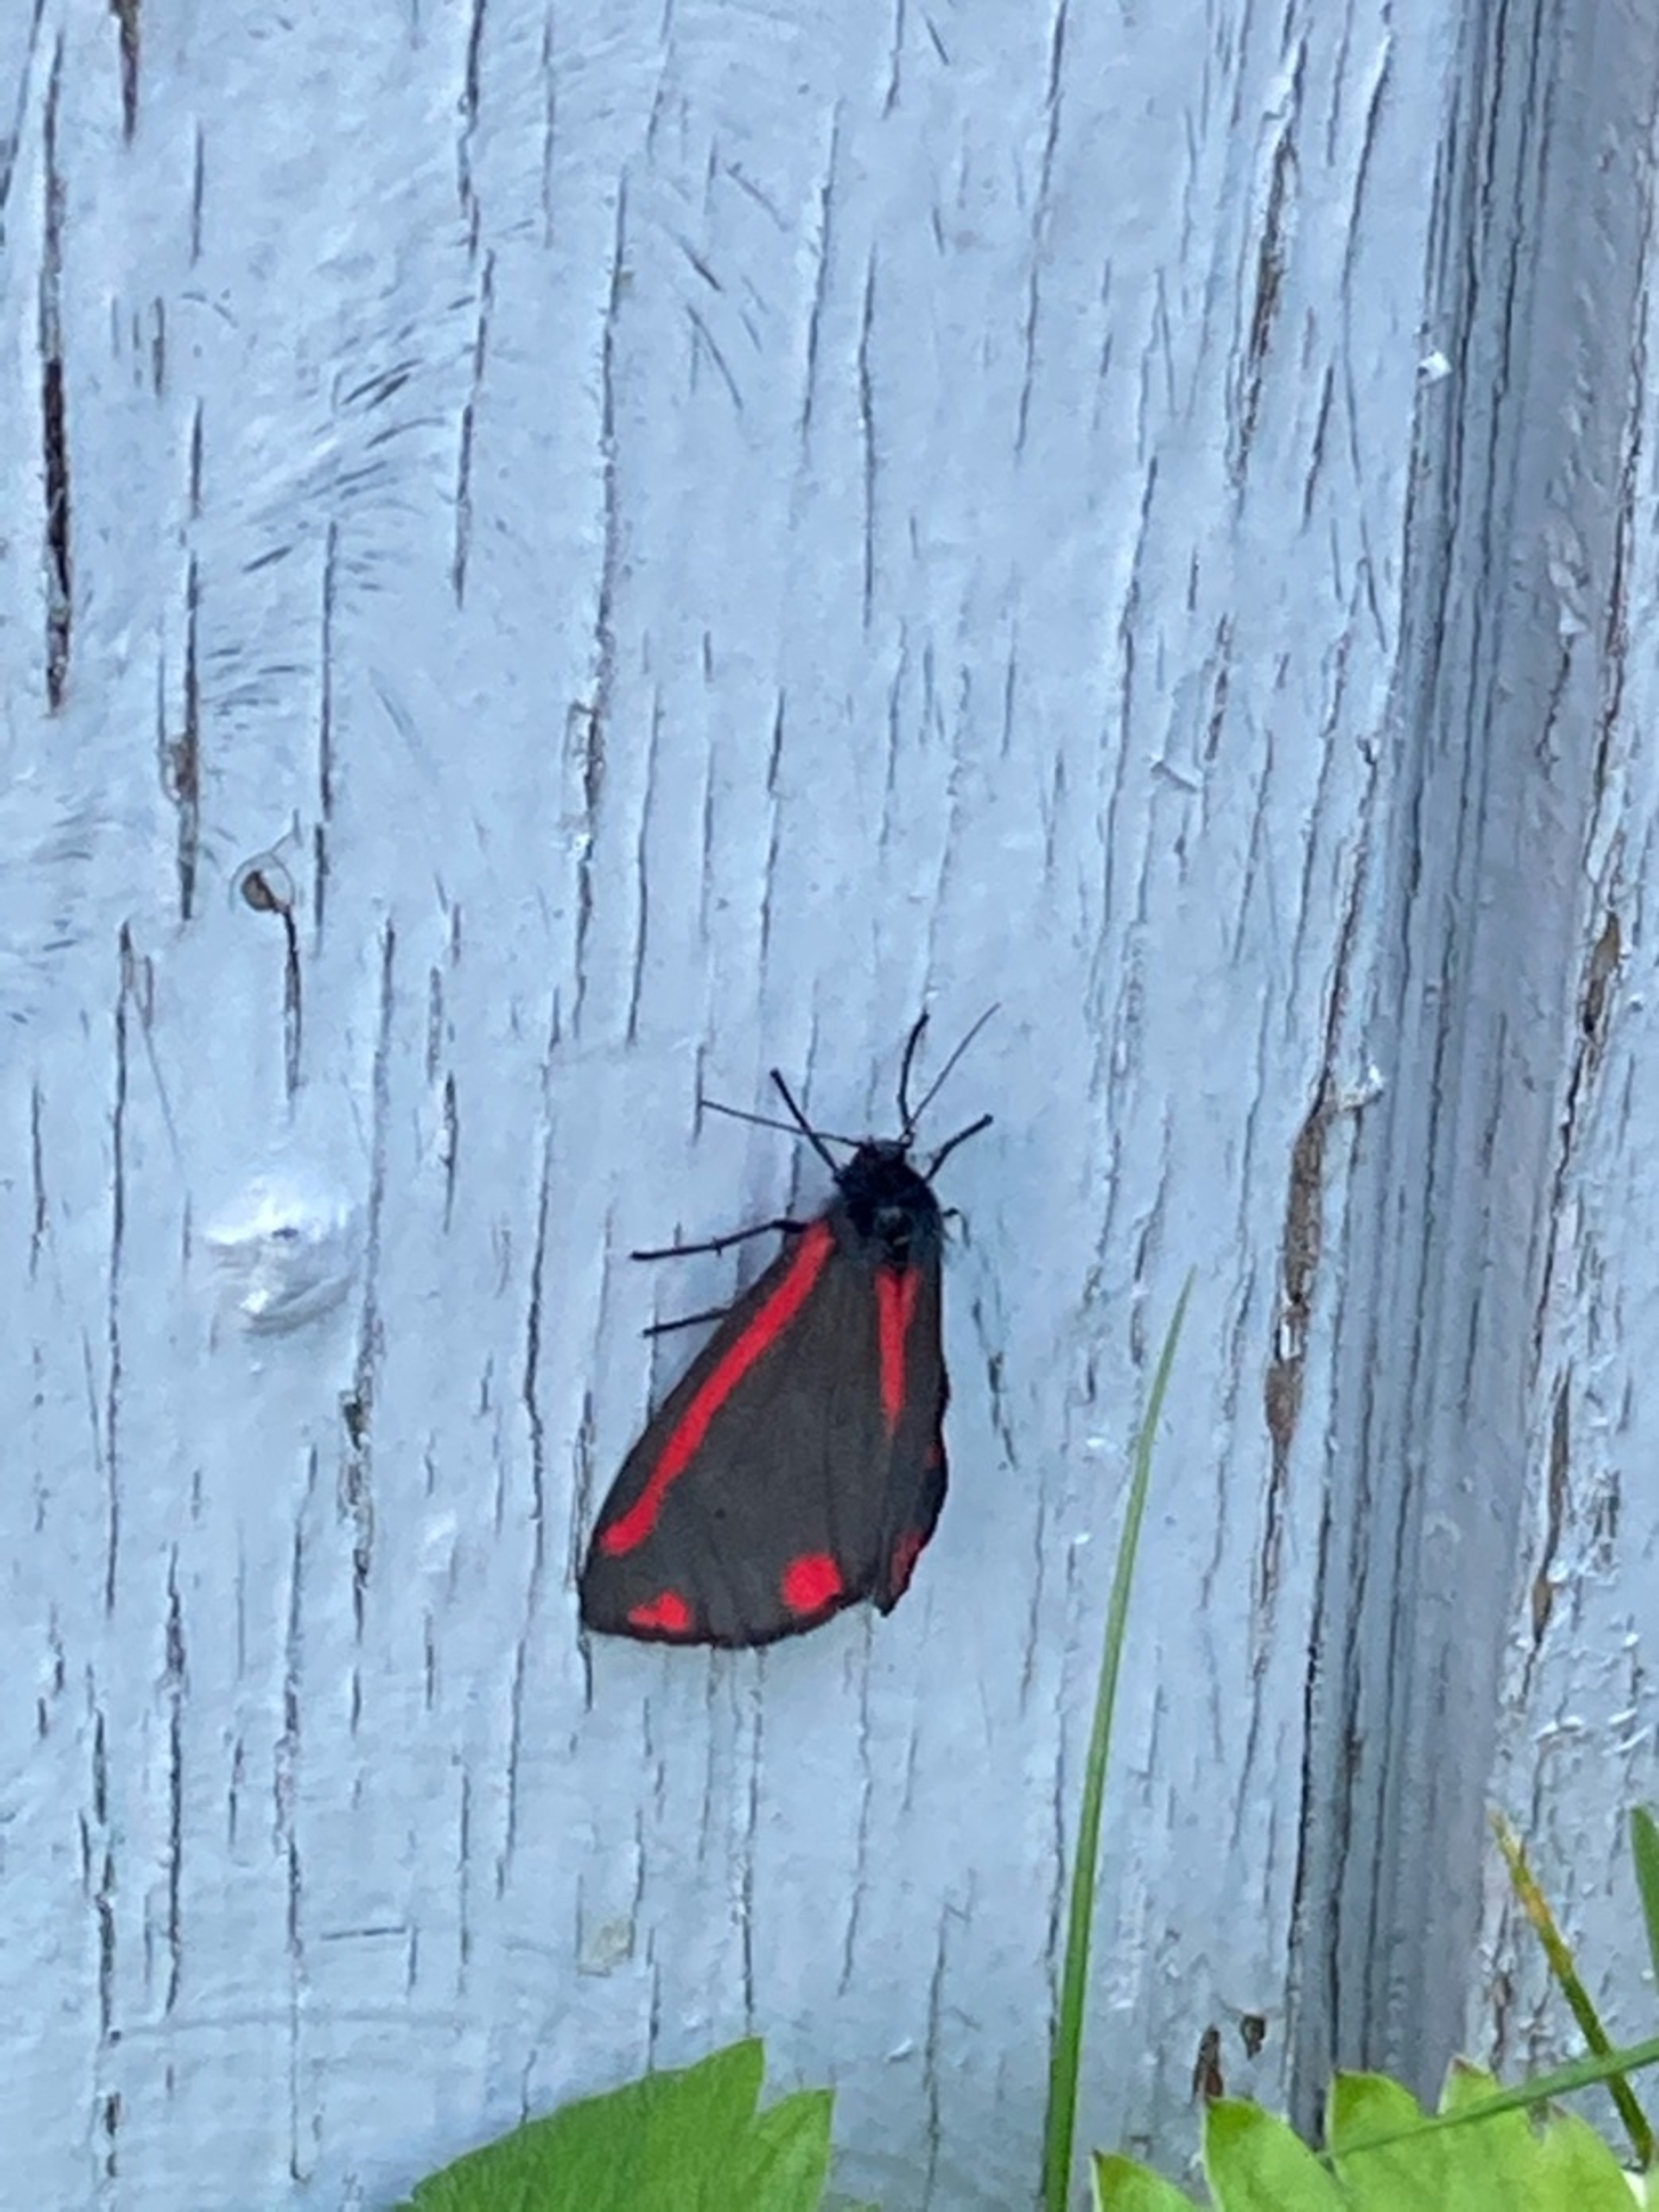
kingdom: Animalia
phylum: Arthropoda
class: Insecta
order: Lepidoptera
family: Erebidae
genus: Tyria
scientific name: Tyria jacobaeae
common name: Blodplet
